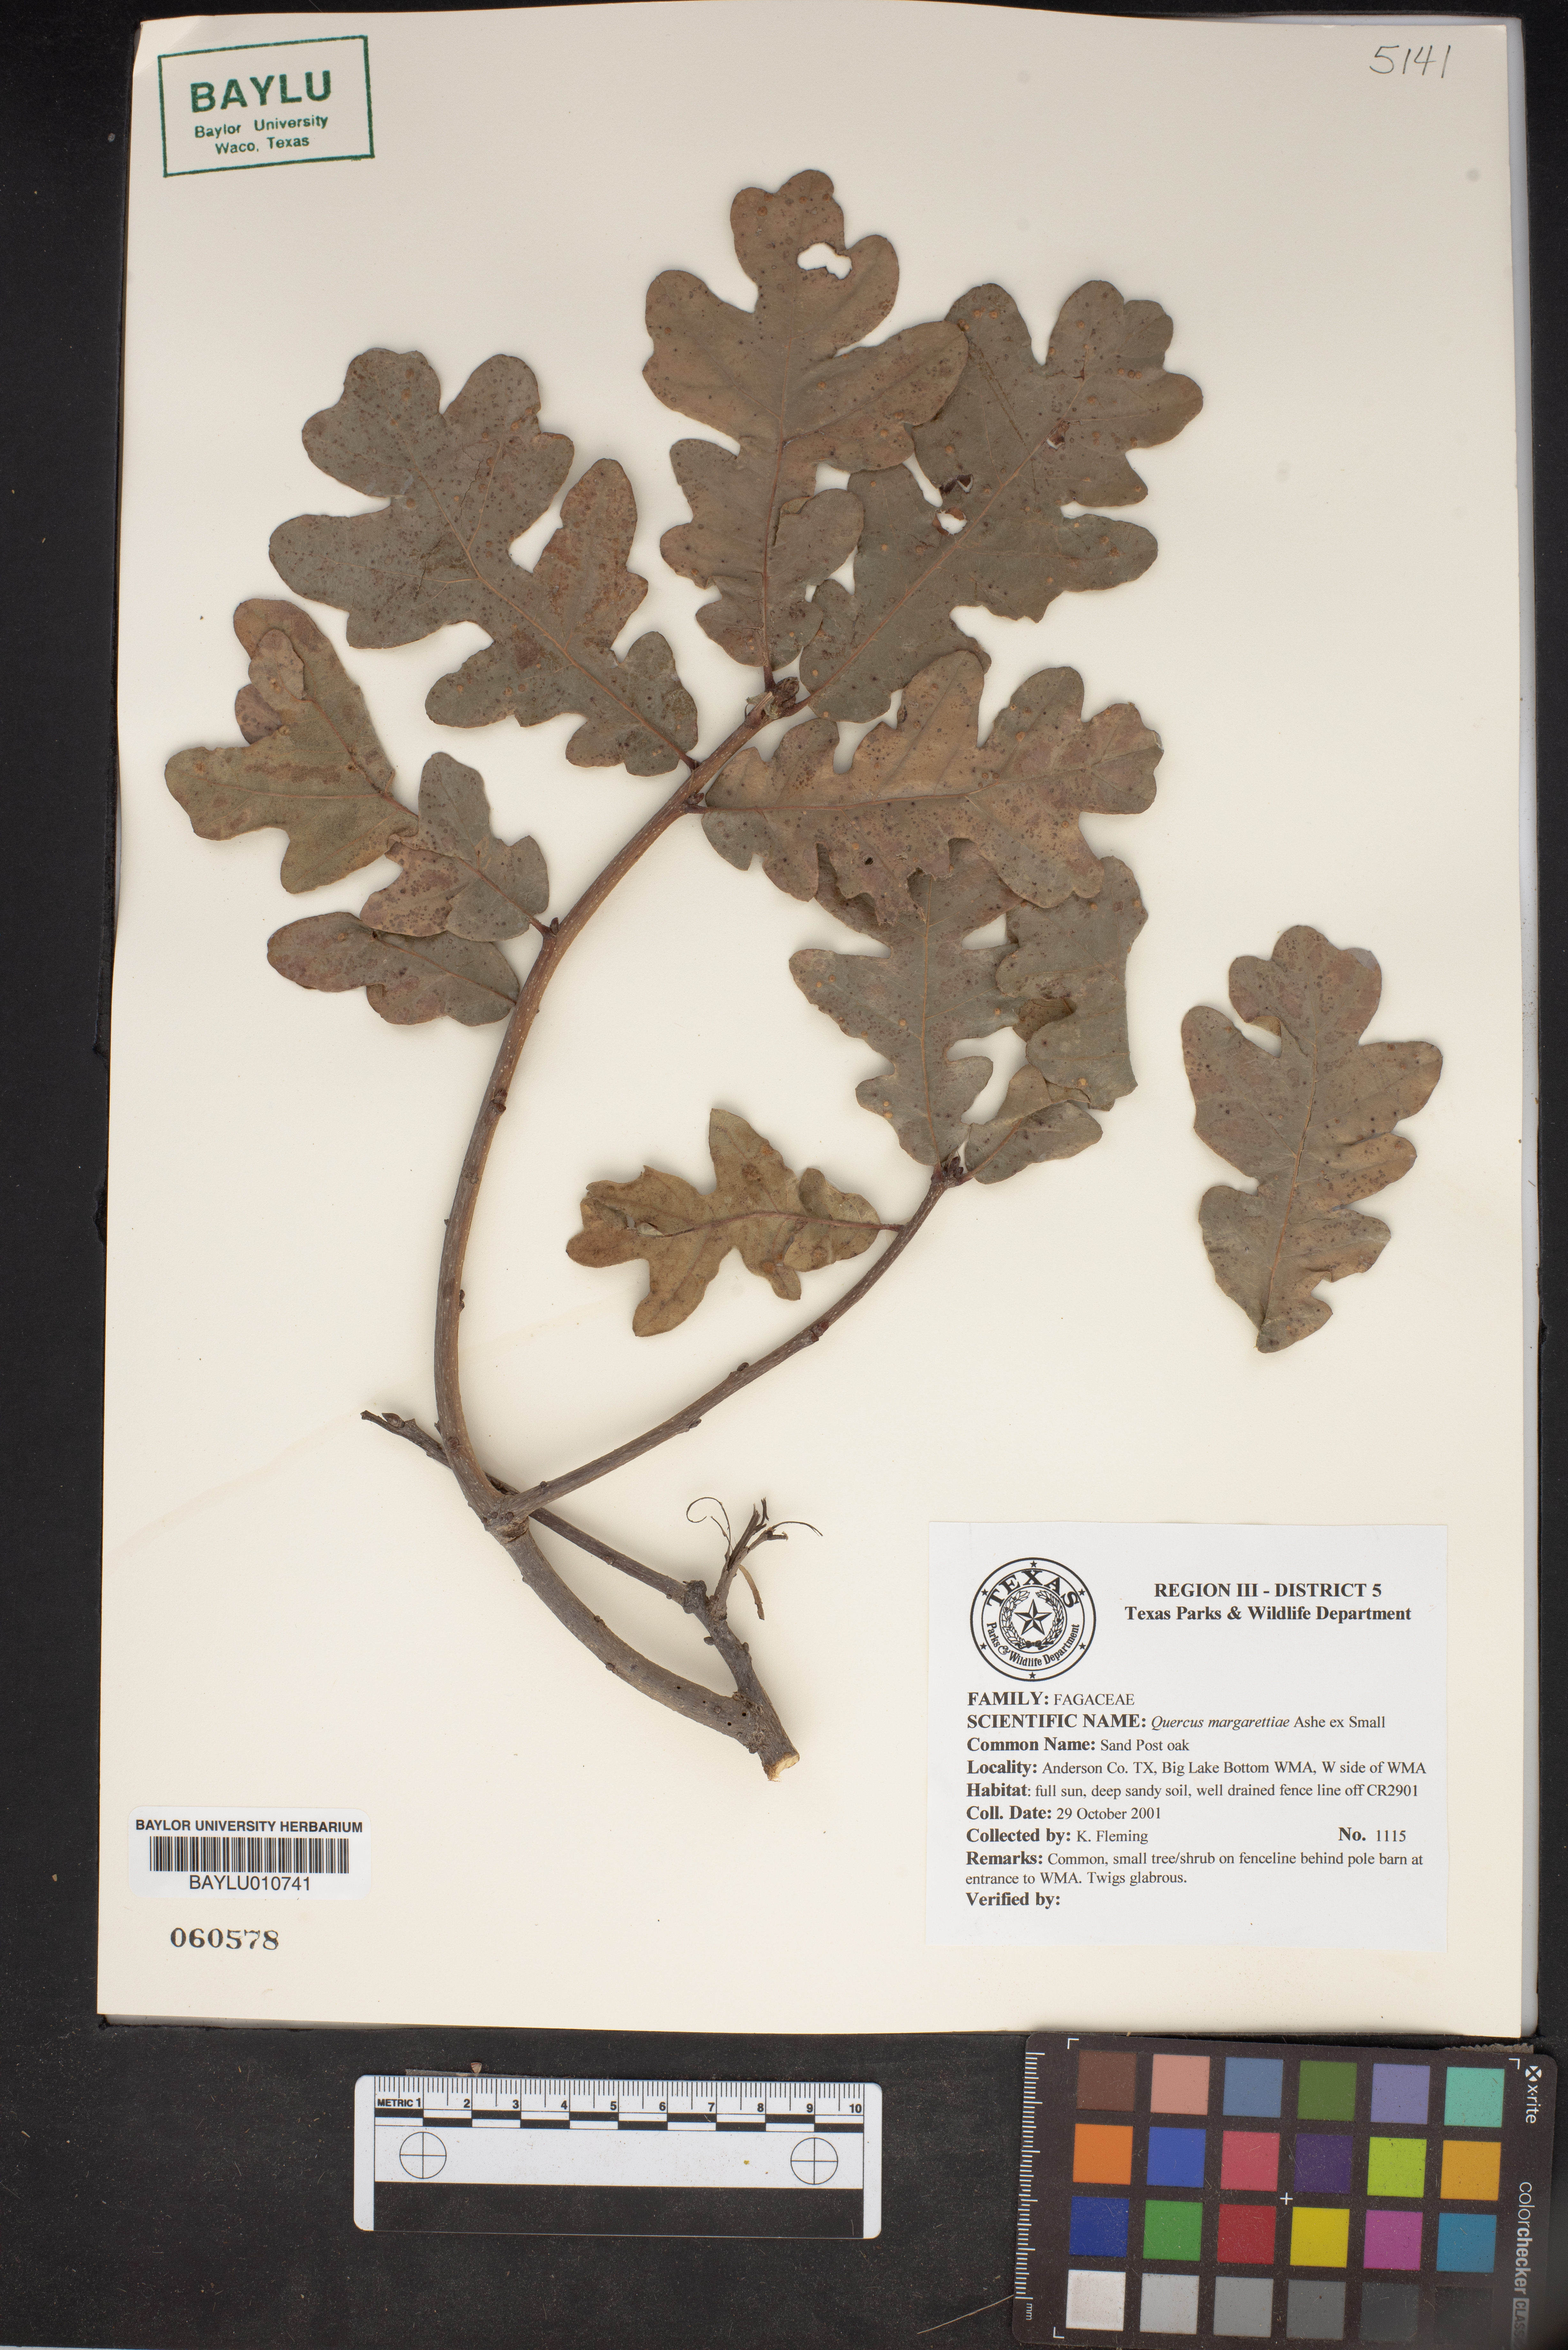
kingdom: Plantae
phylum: Tracheophyta
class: Magnoliopsida
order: Fagales
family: Fagaceae
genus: Quercus
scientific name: Quercus margaretiae
